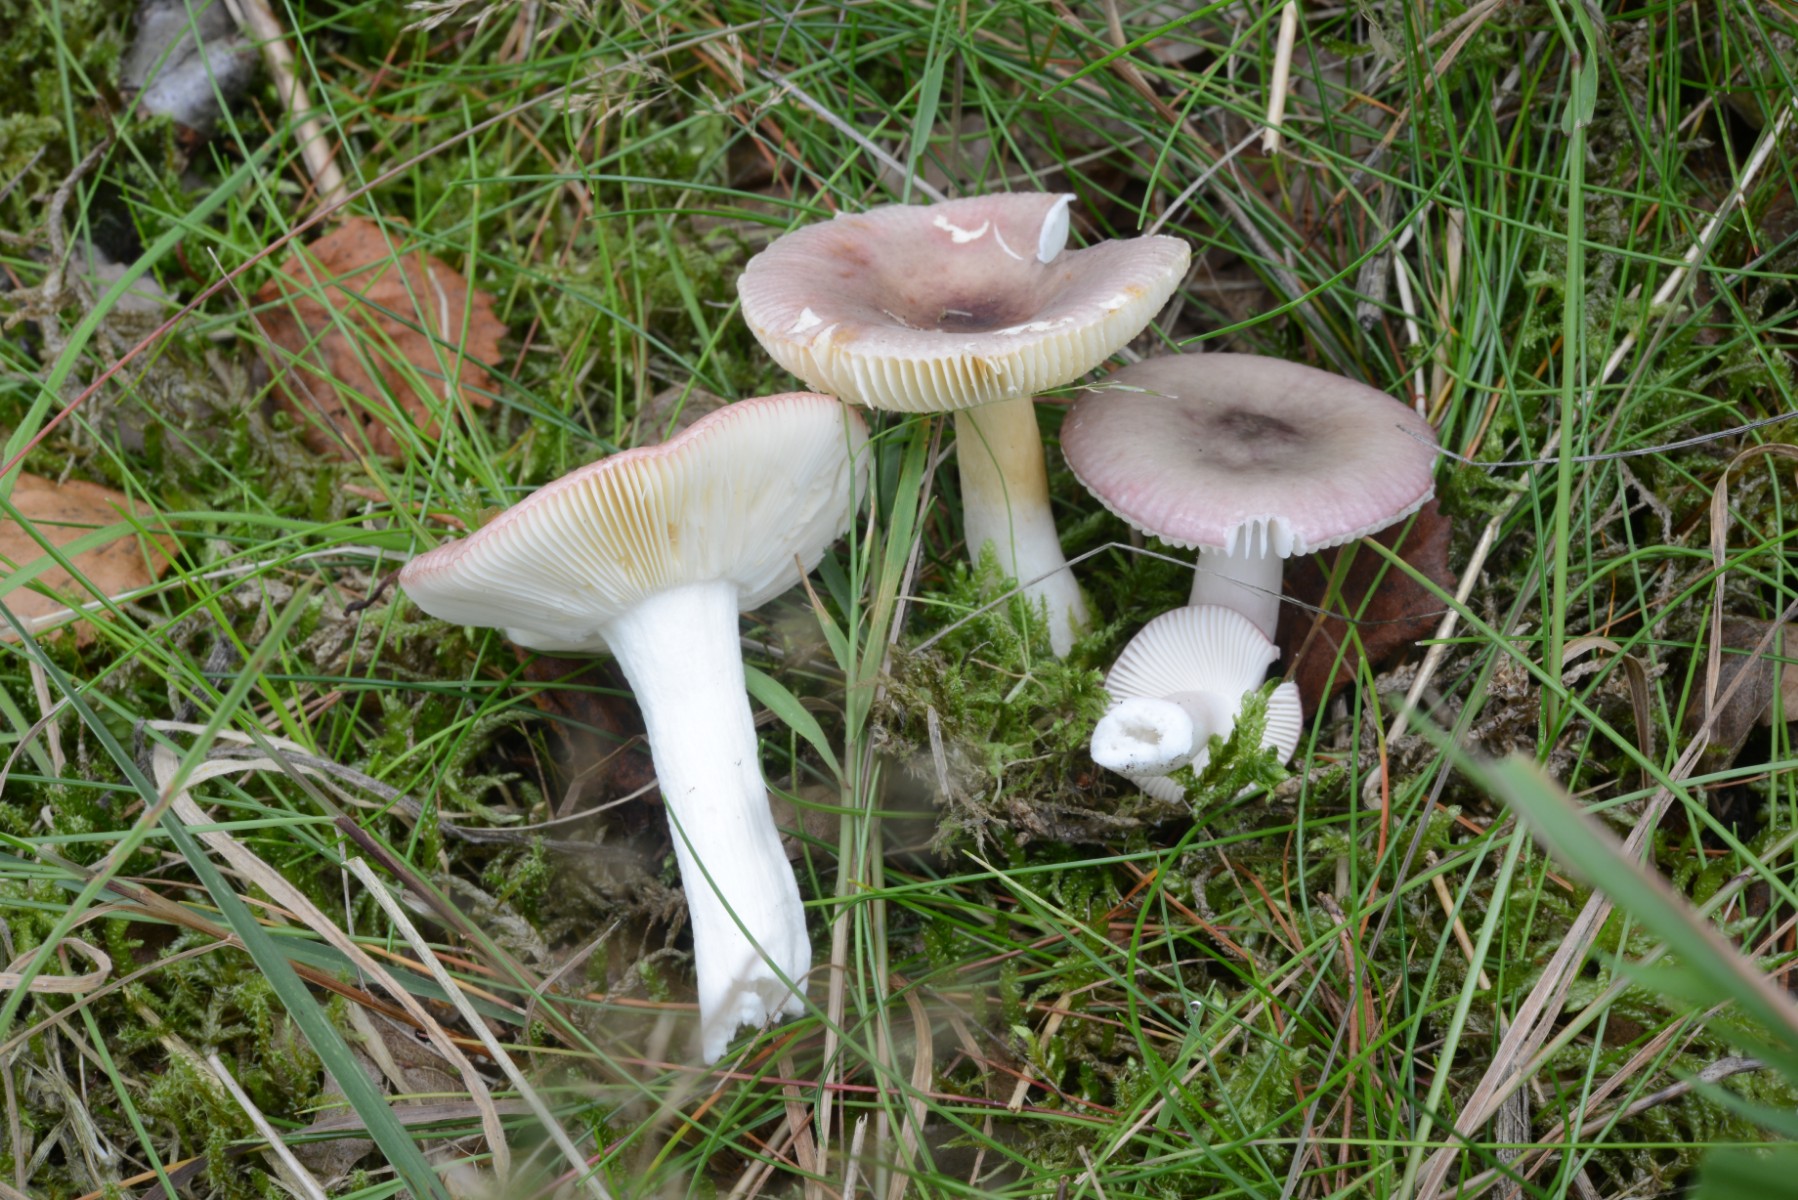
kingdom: Fungi
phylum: Basidiomycota
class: Agaricomycetes
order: Russulales
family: Russulaceae
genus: Russula
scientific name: Russula versicolor
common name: foranderlig skørhat
